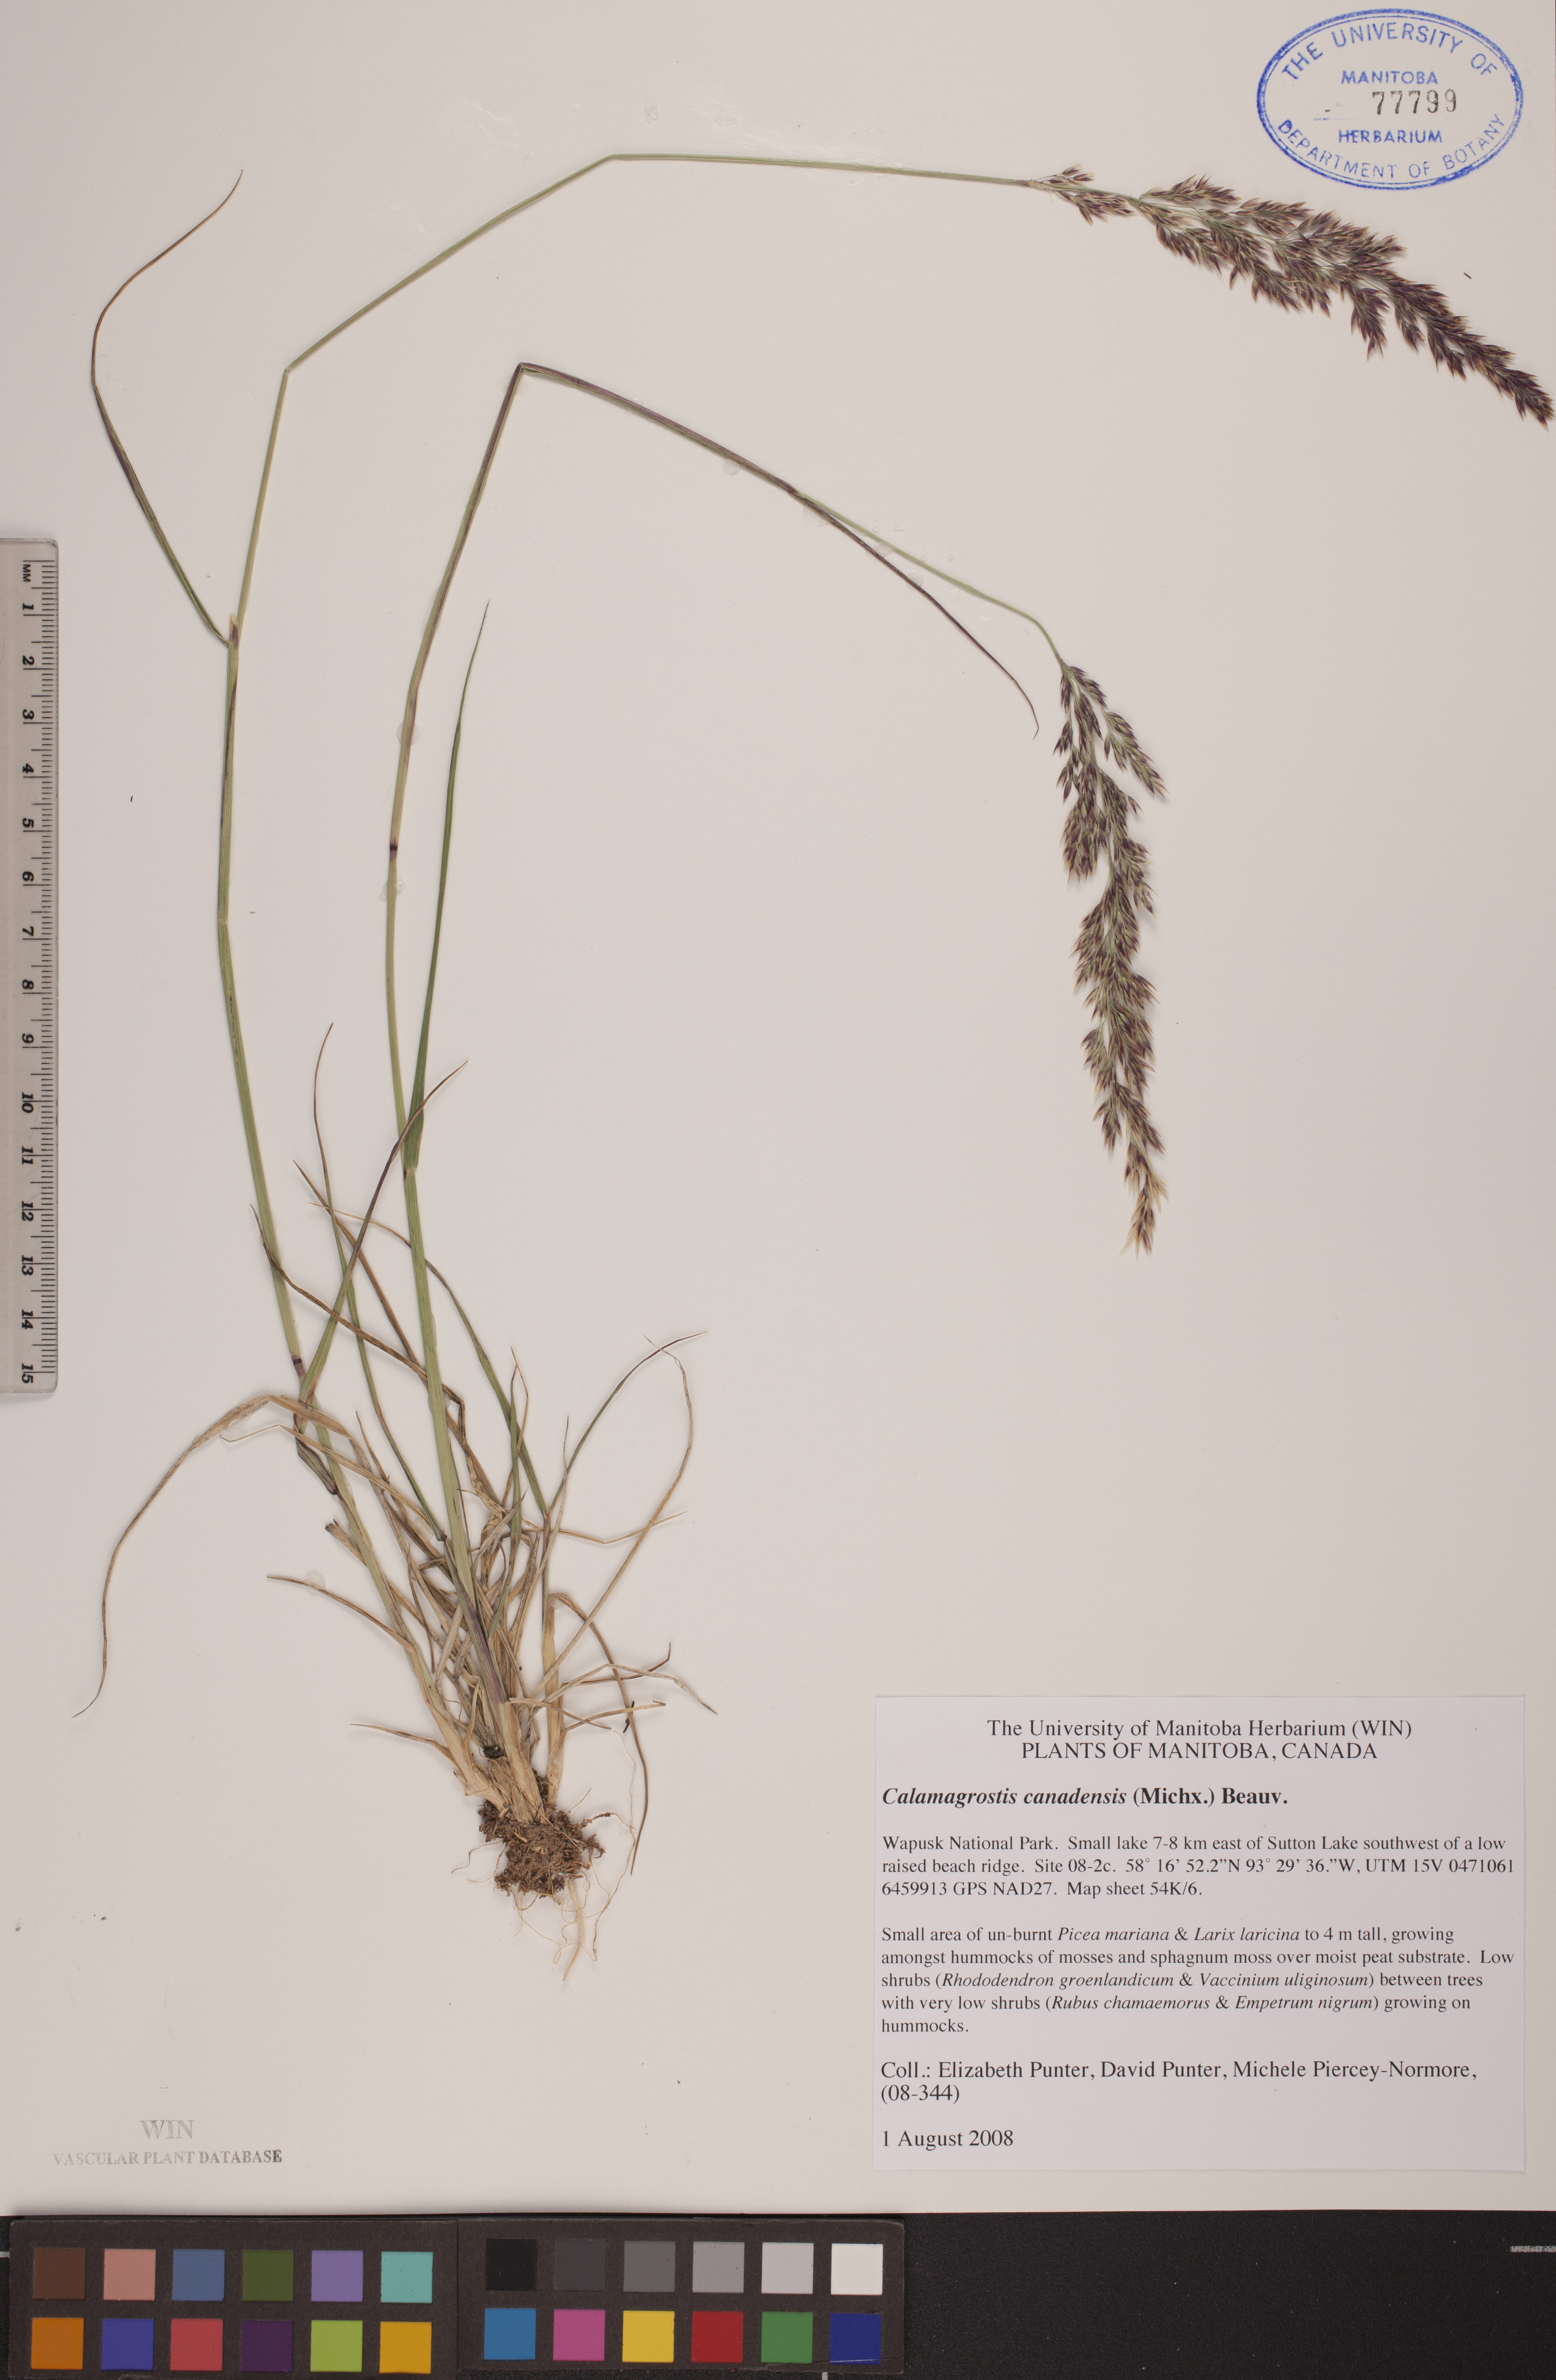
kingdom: Plantae
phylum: Tracheophyta
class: Liliopsida
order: Poales
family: Poaceae
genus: Calamagrostis
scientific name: Calamagrostis canadensis
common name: Canada bluejoint
